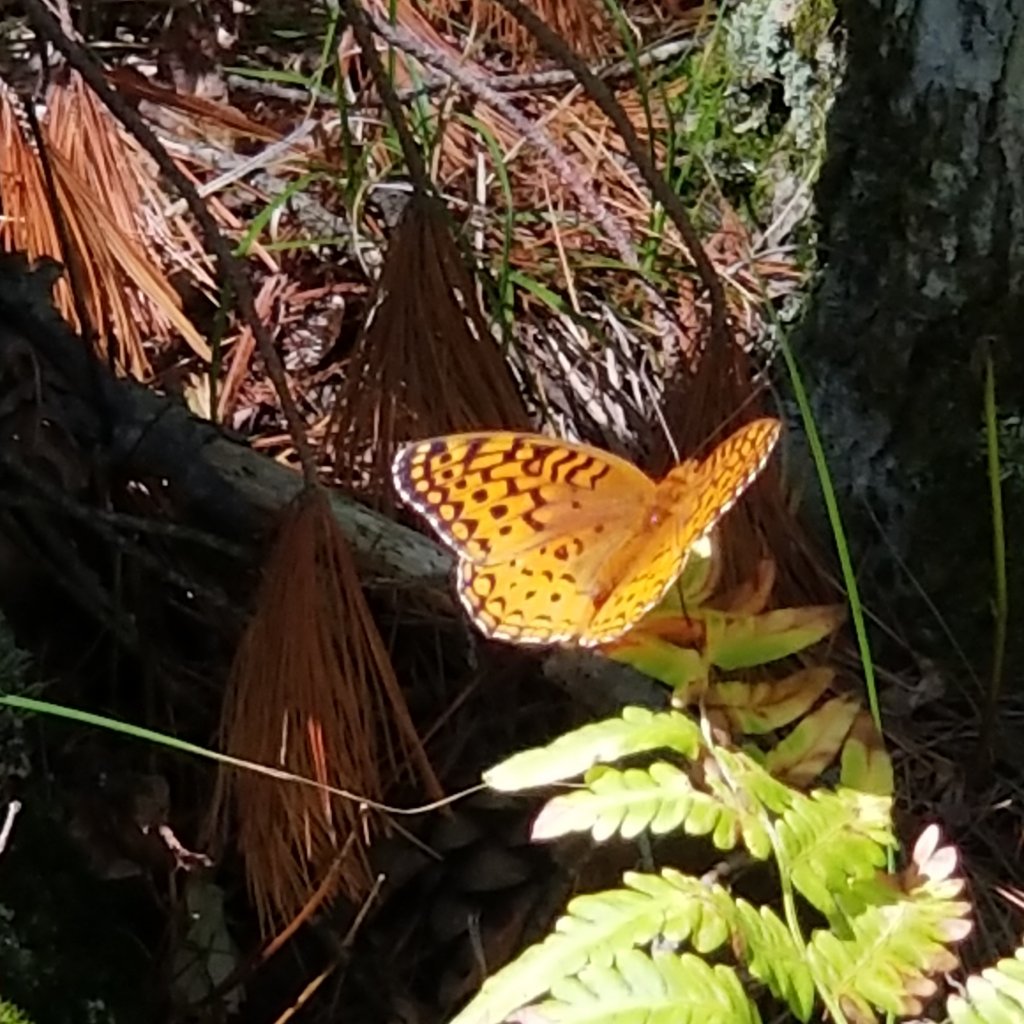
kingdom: Animalia
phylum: Arthropoda
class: Insecta
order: Lepidoptera
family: Nymphalidae
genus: Speyeria
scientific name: Speyeria aphrodite
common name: Aphrodite Fritillary
